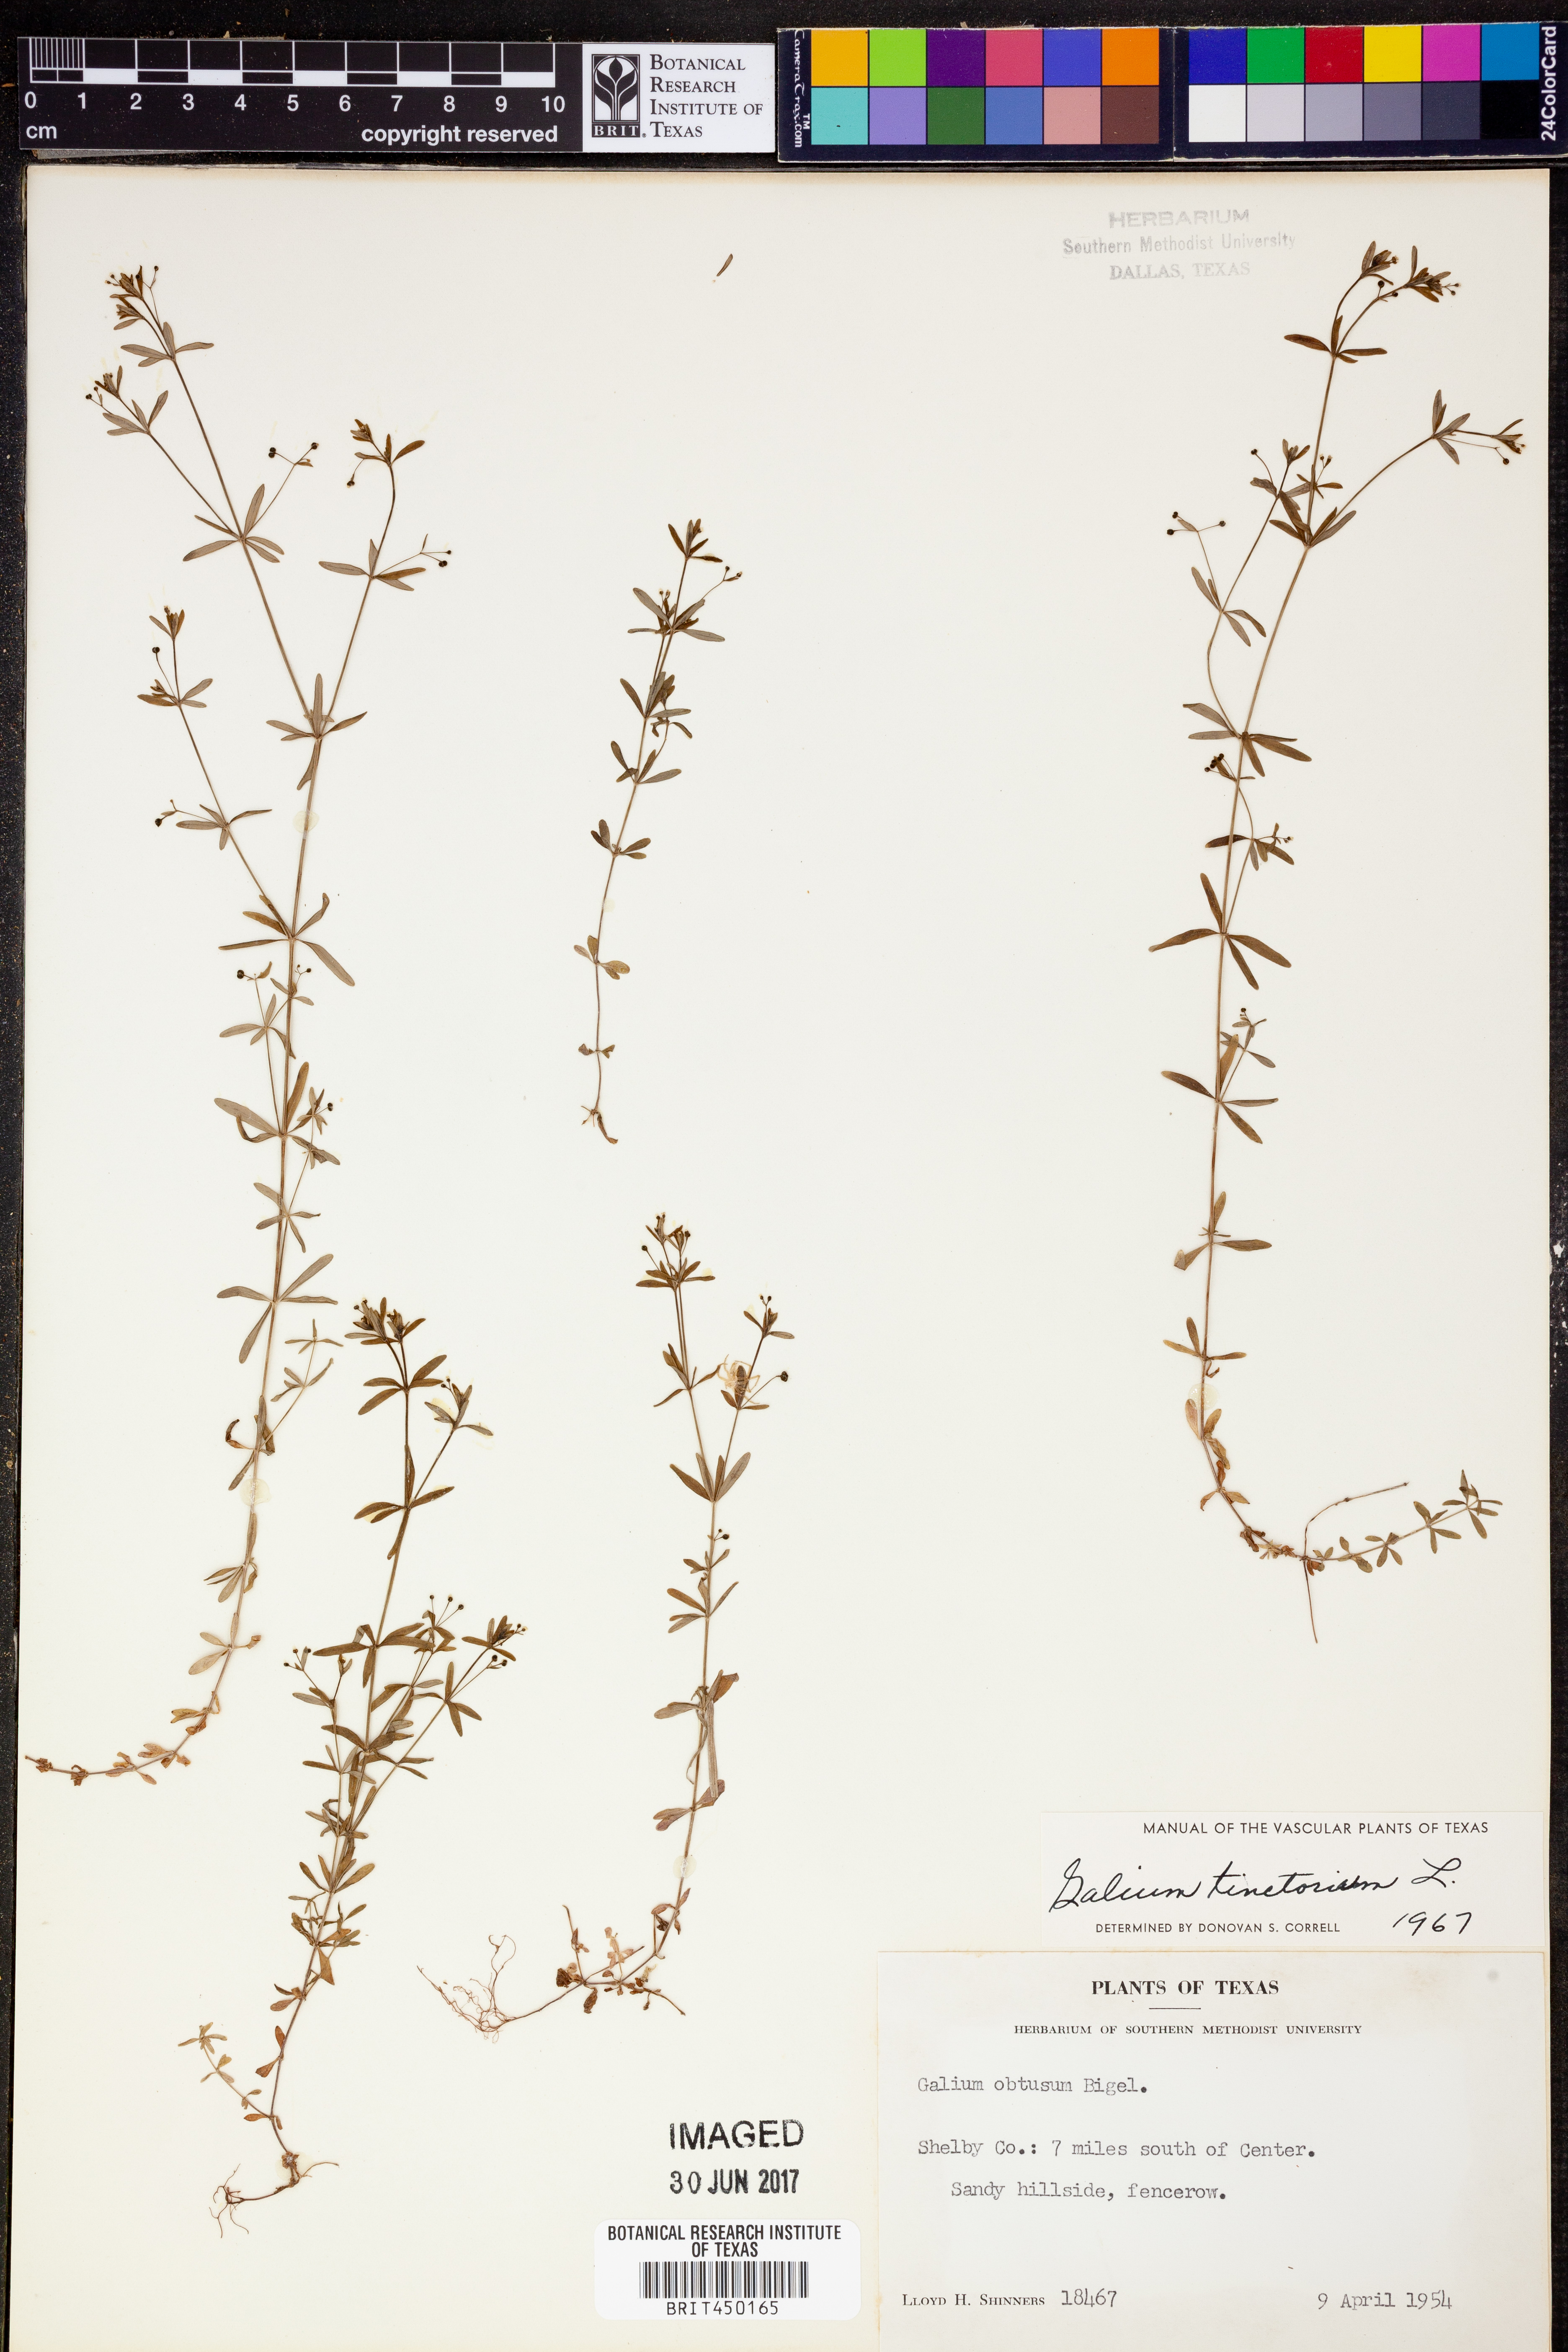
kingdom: Plantae
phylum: Tracheophyta
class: Magnoliopsida
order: Gentianales
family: Rubiaceae
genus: Asperula
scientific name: Asperula tinctoria
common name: Dyer's woodruff
